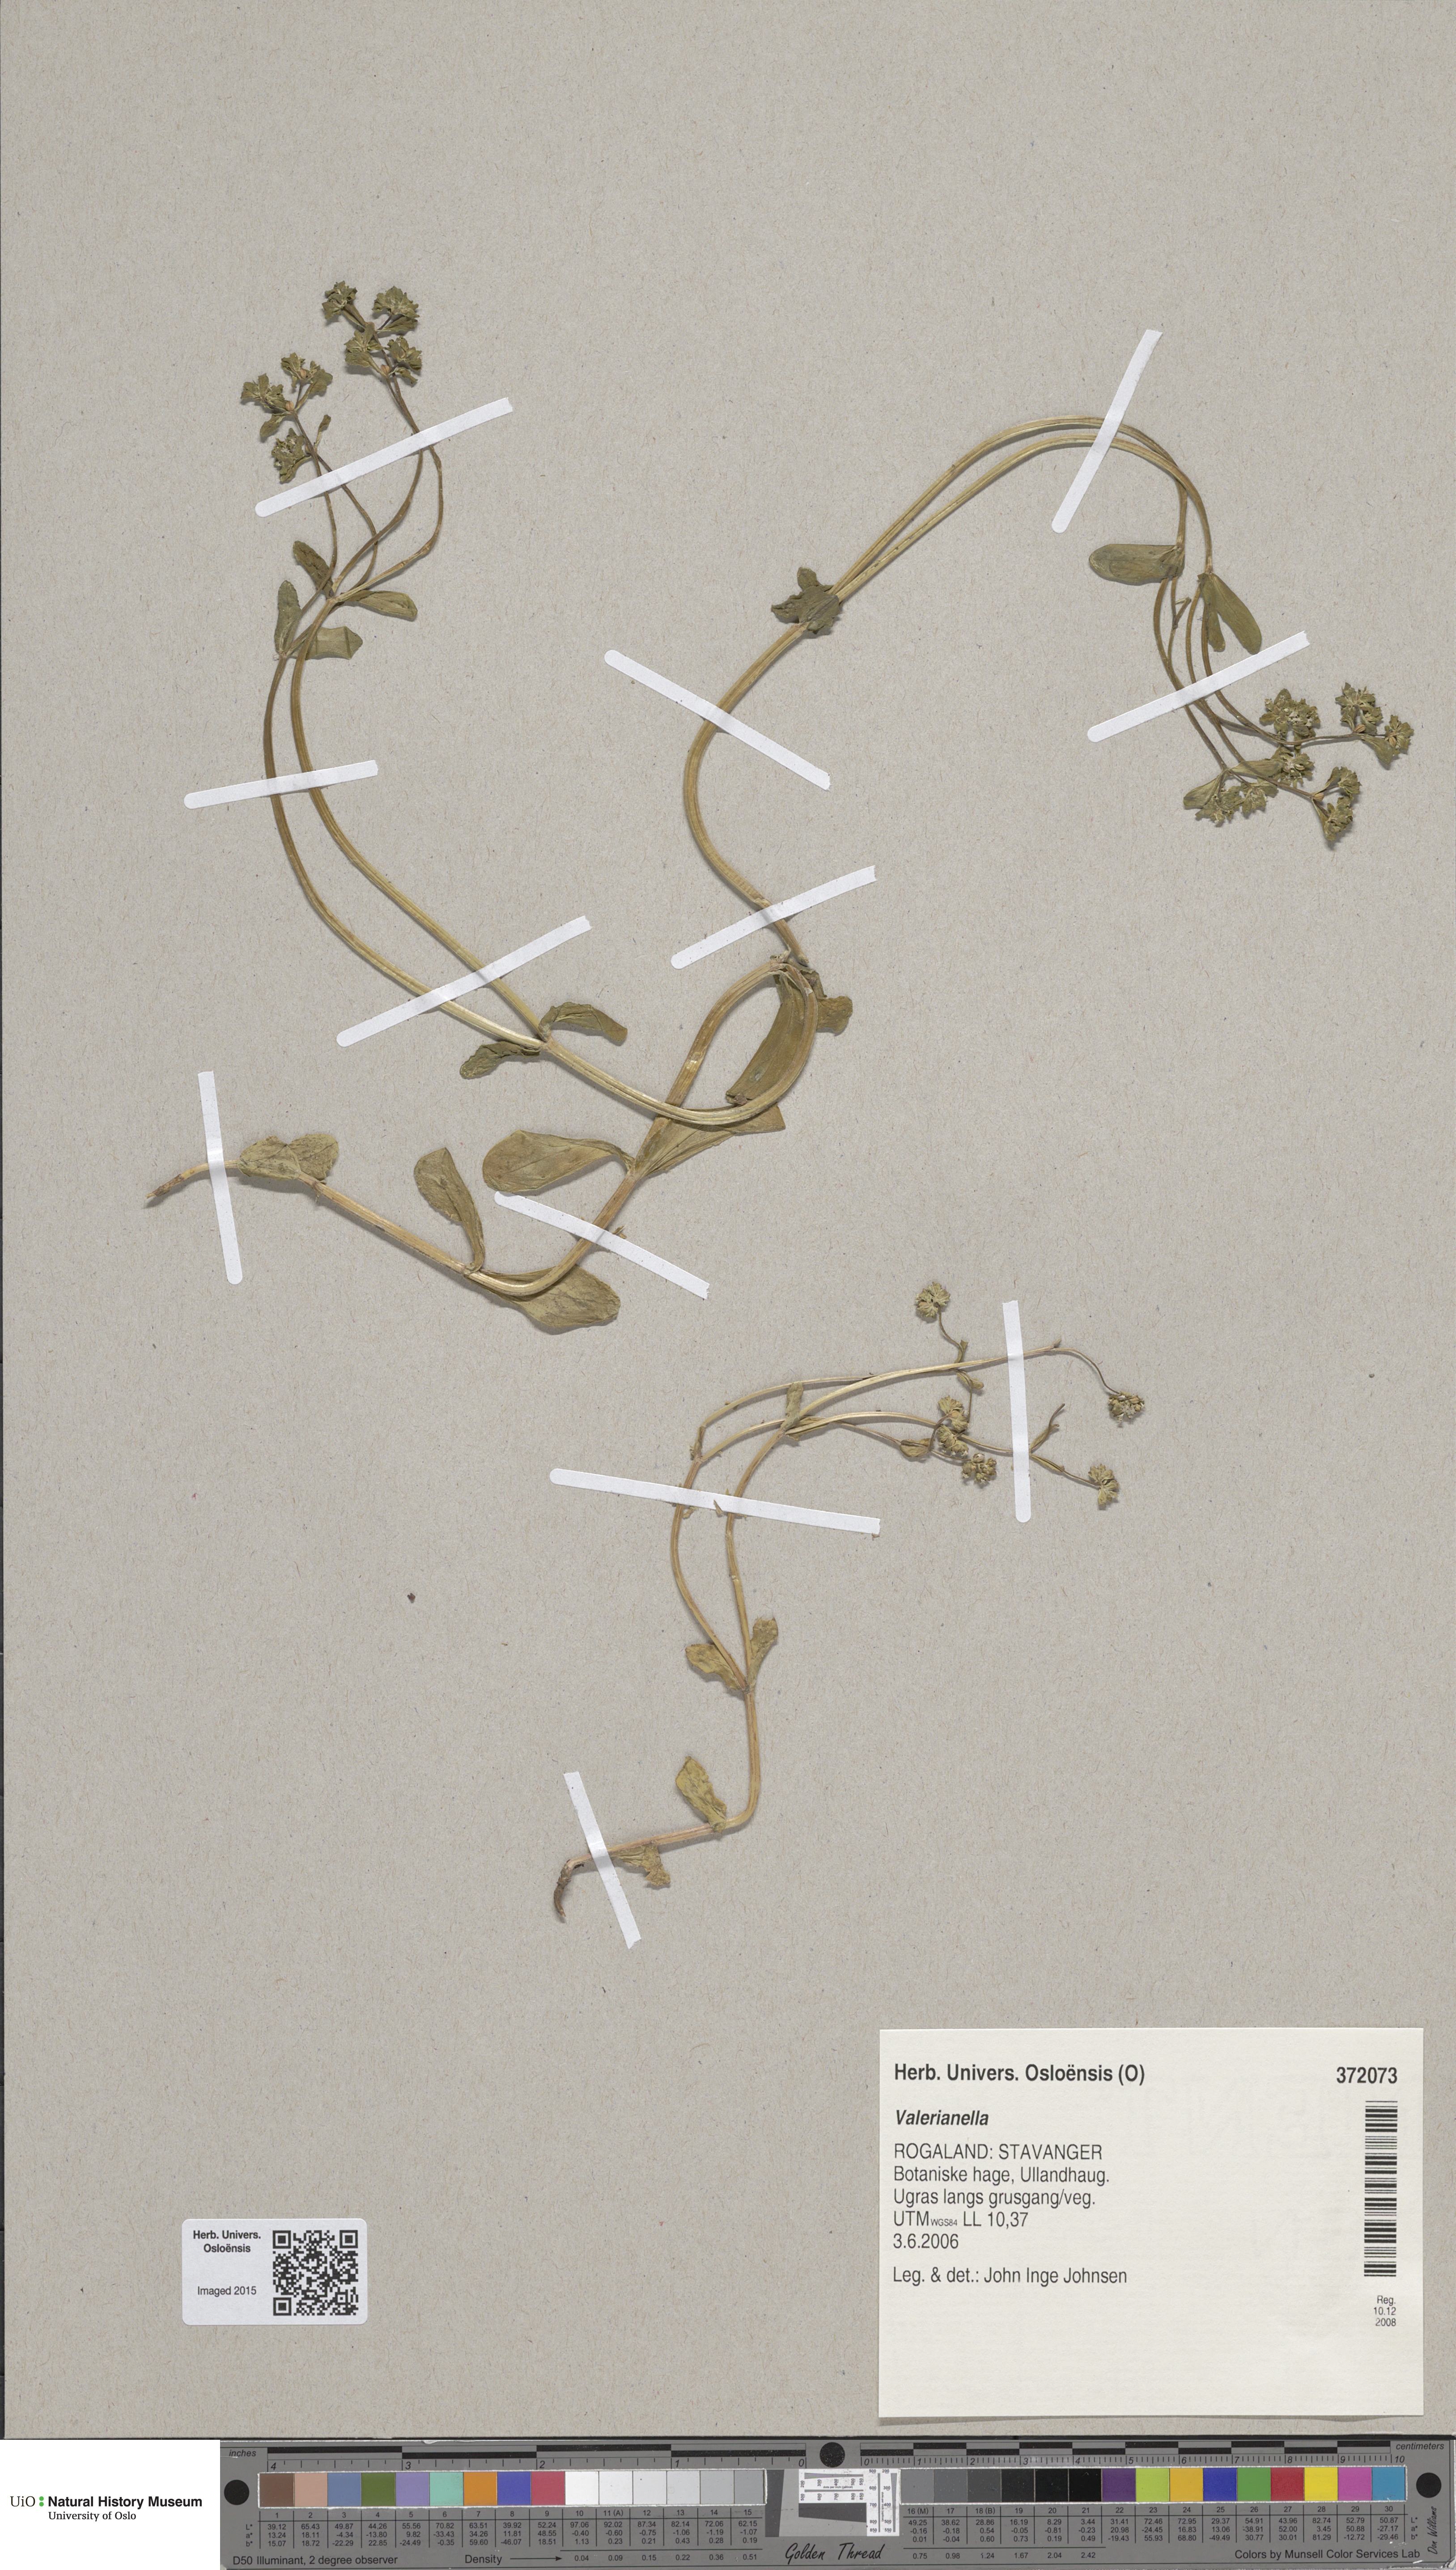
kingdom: Plantae
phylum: Tracheophyta
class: Magnoliopsida
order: Dipsacales
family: Caprifoliaceae
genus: Valerianella
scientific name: Valerianella
